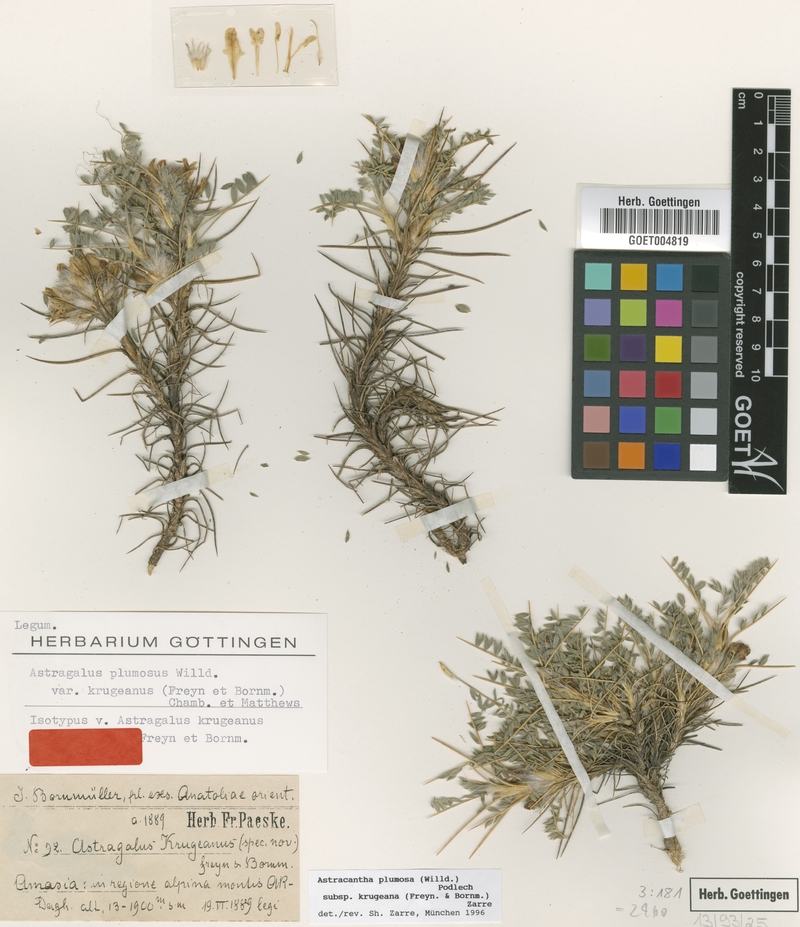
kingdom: Plantae
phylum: Tracheophyta
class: Magnoliopsida
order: Fabales
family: Fabaceae
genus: Astragalus
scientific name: Astragalus plumosus
